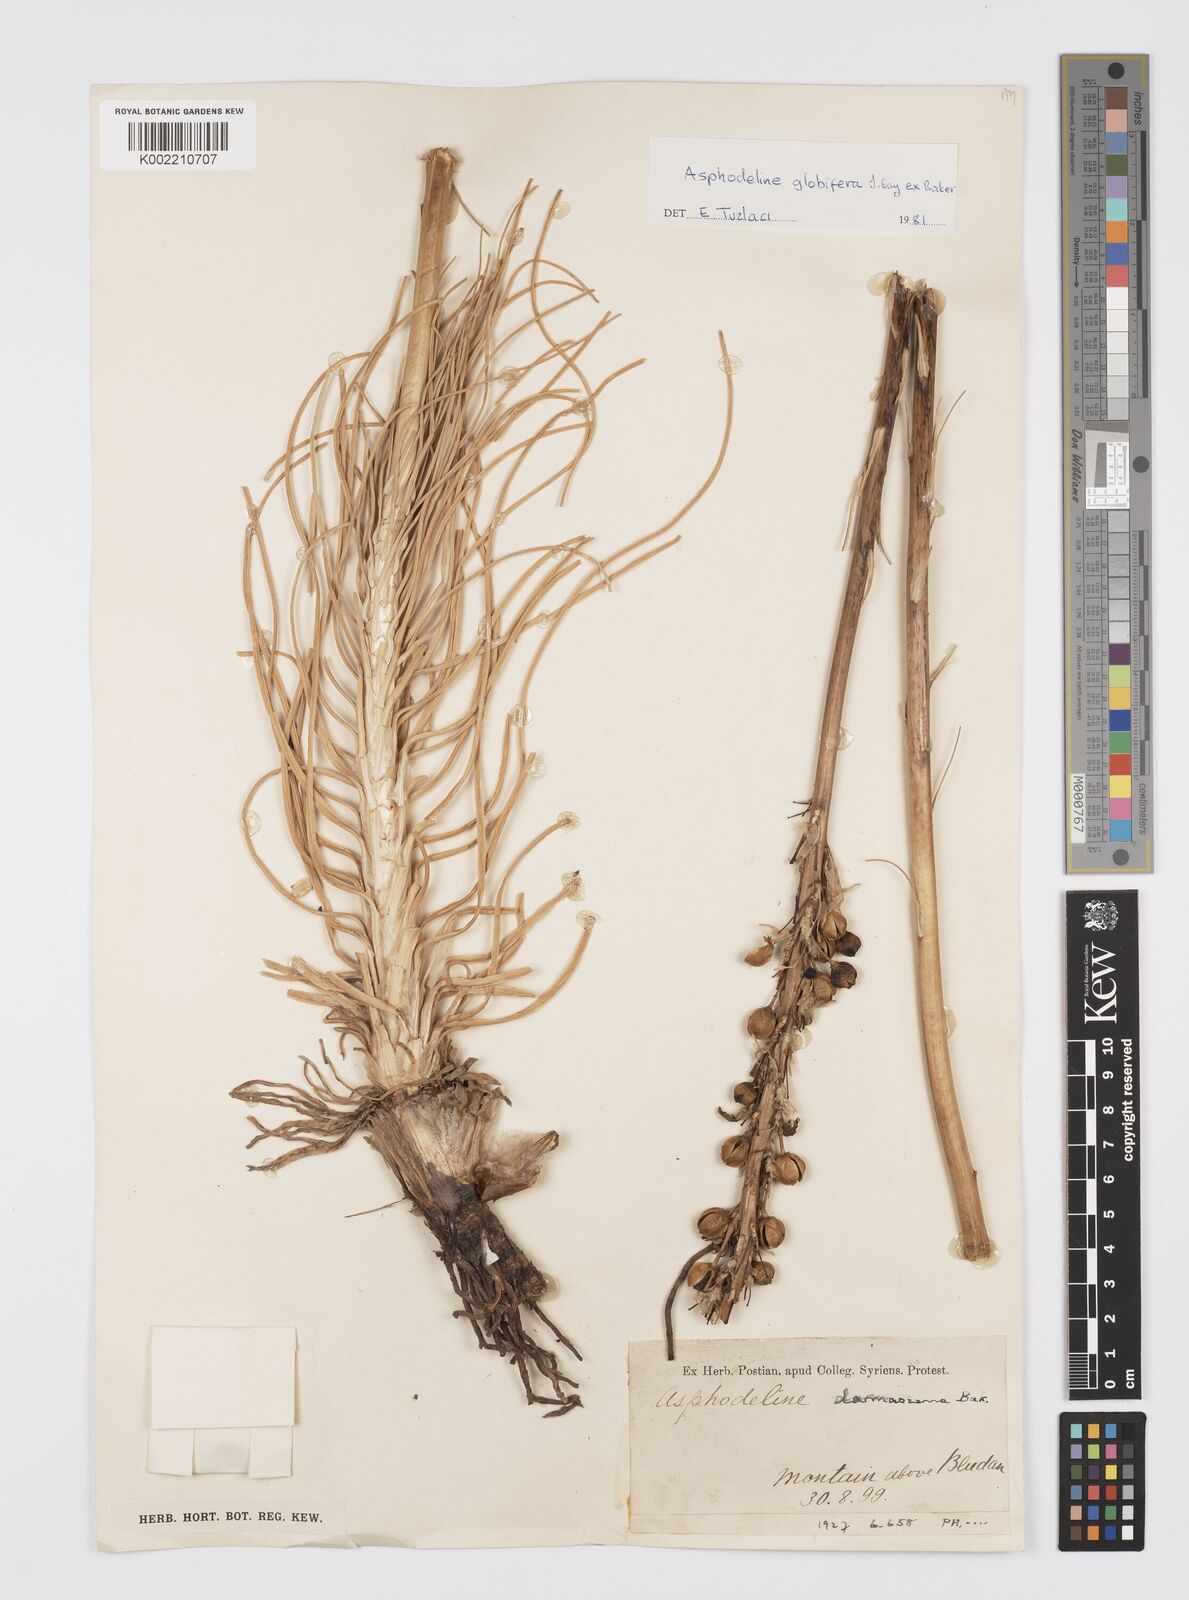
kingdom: Plantae
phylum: Tracheophyta
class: Liliopsida
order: Asparagales
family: Asphodelaceae
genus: Asphodeline
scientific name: Asphodeline globifera
